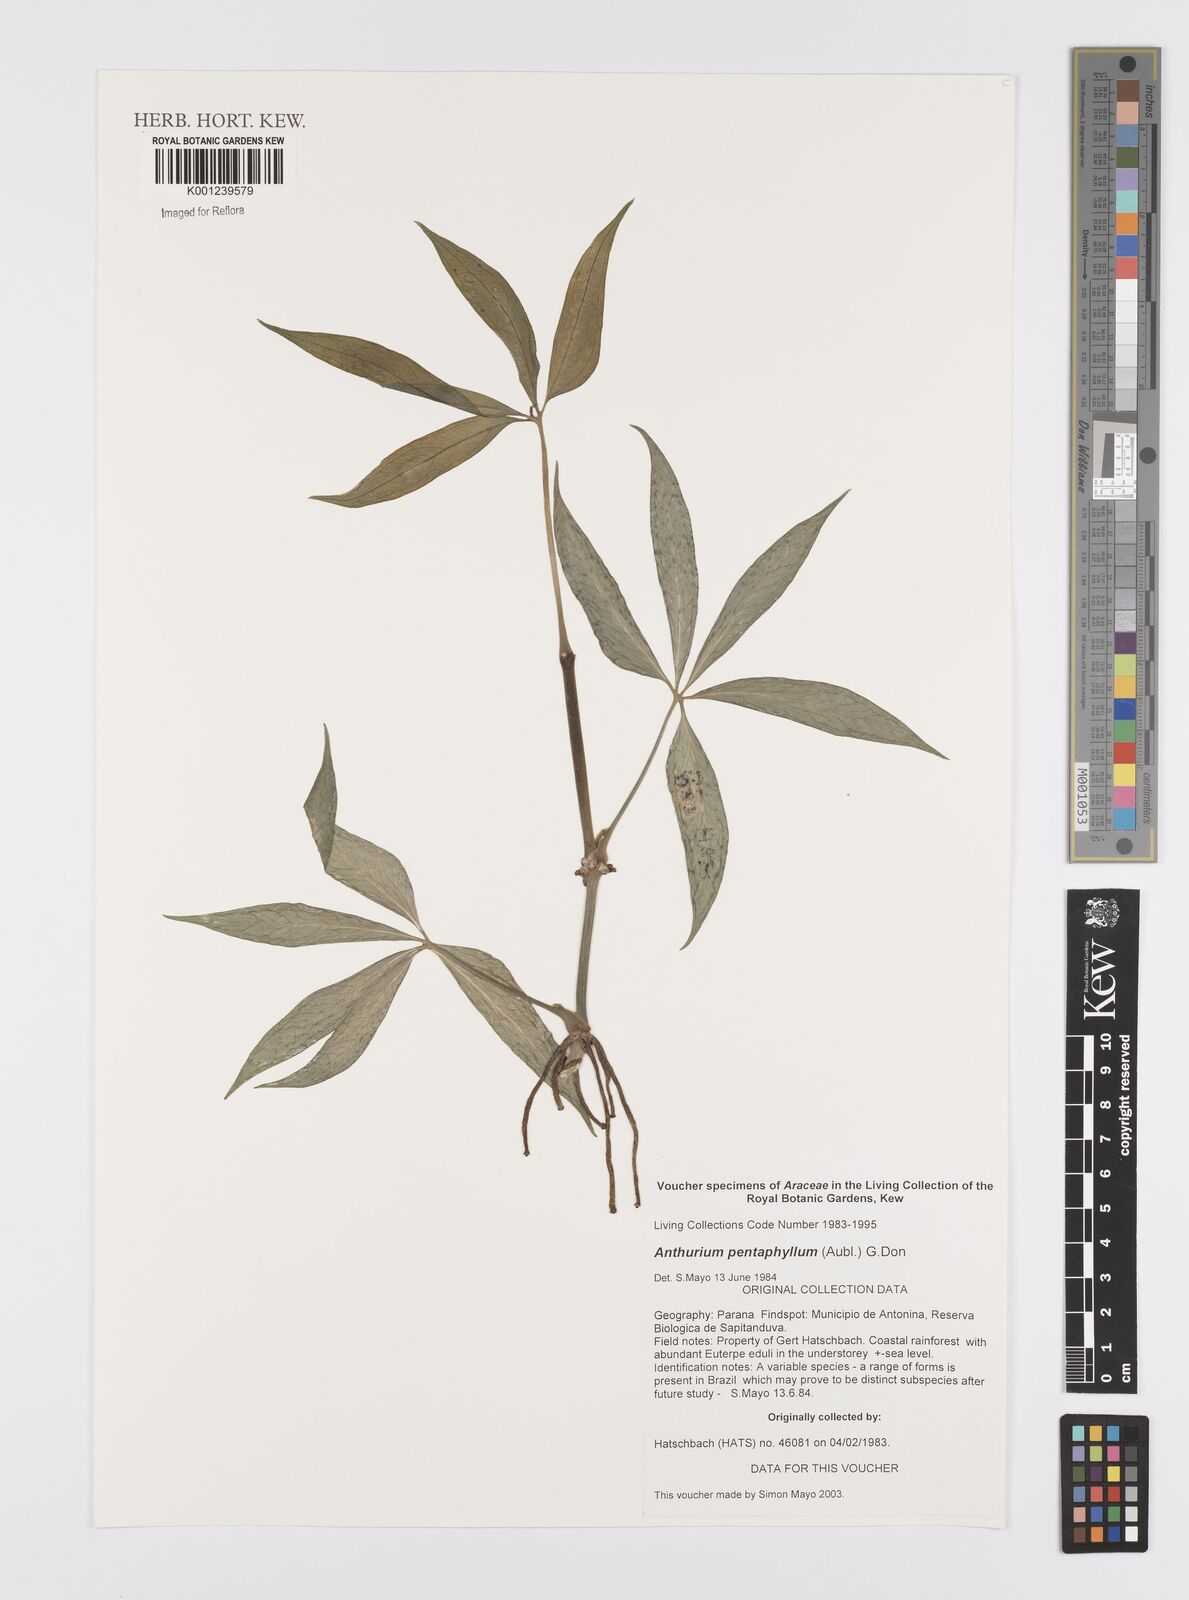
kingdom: Plantae
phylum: Tracheophyta
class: Liliopsida
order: Alismatales
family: Araceae
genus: Anthurium
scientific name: Anthurium pentaphyllum
